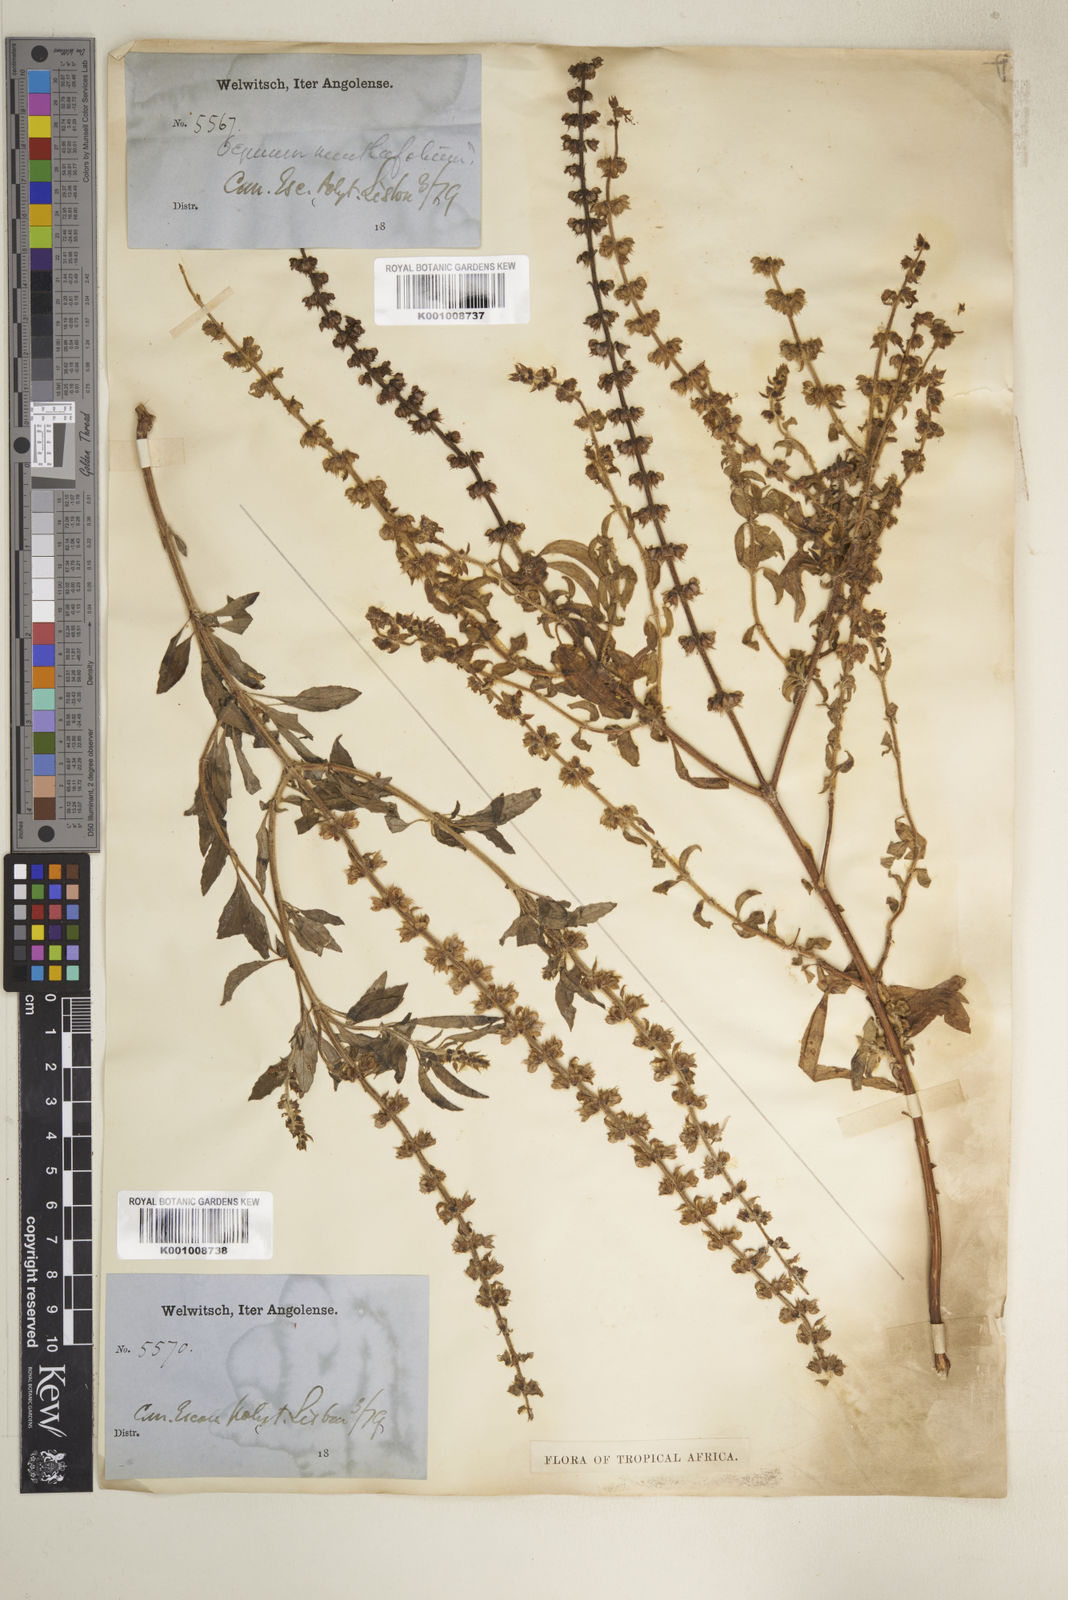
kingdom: Plantae
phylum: Tracheophyta
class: Magnoliopsida
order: Lamiales
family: Lamiaceae
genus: Ocimum
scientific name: Ocimum americanum
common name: American basil
